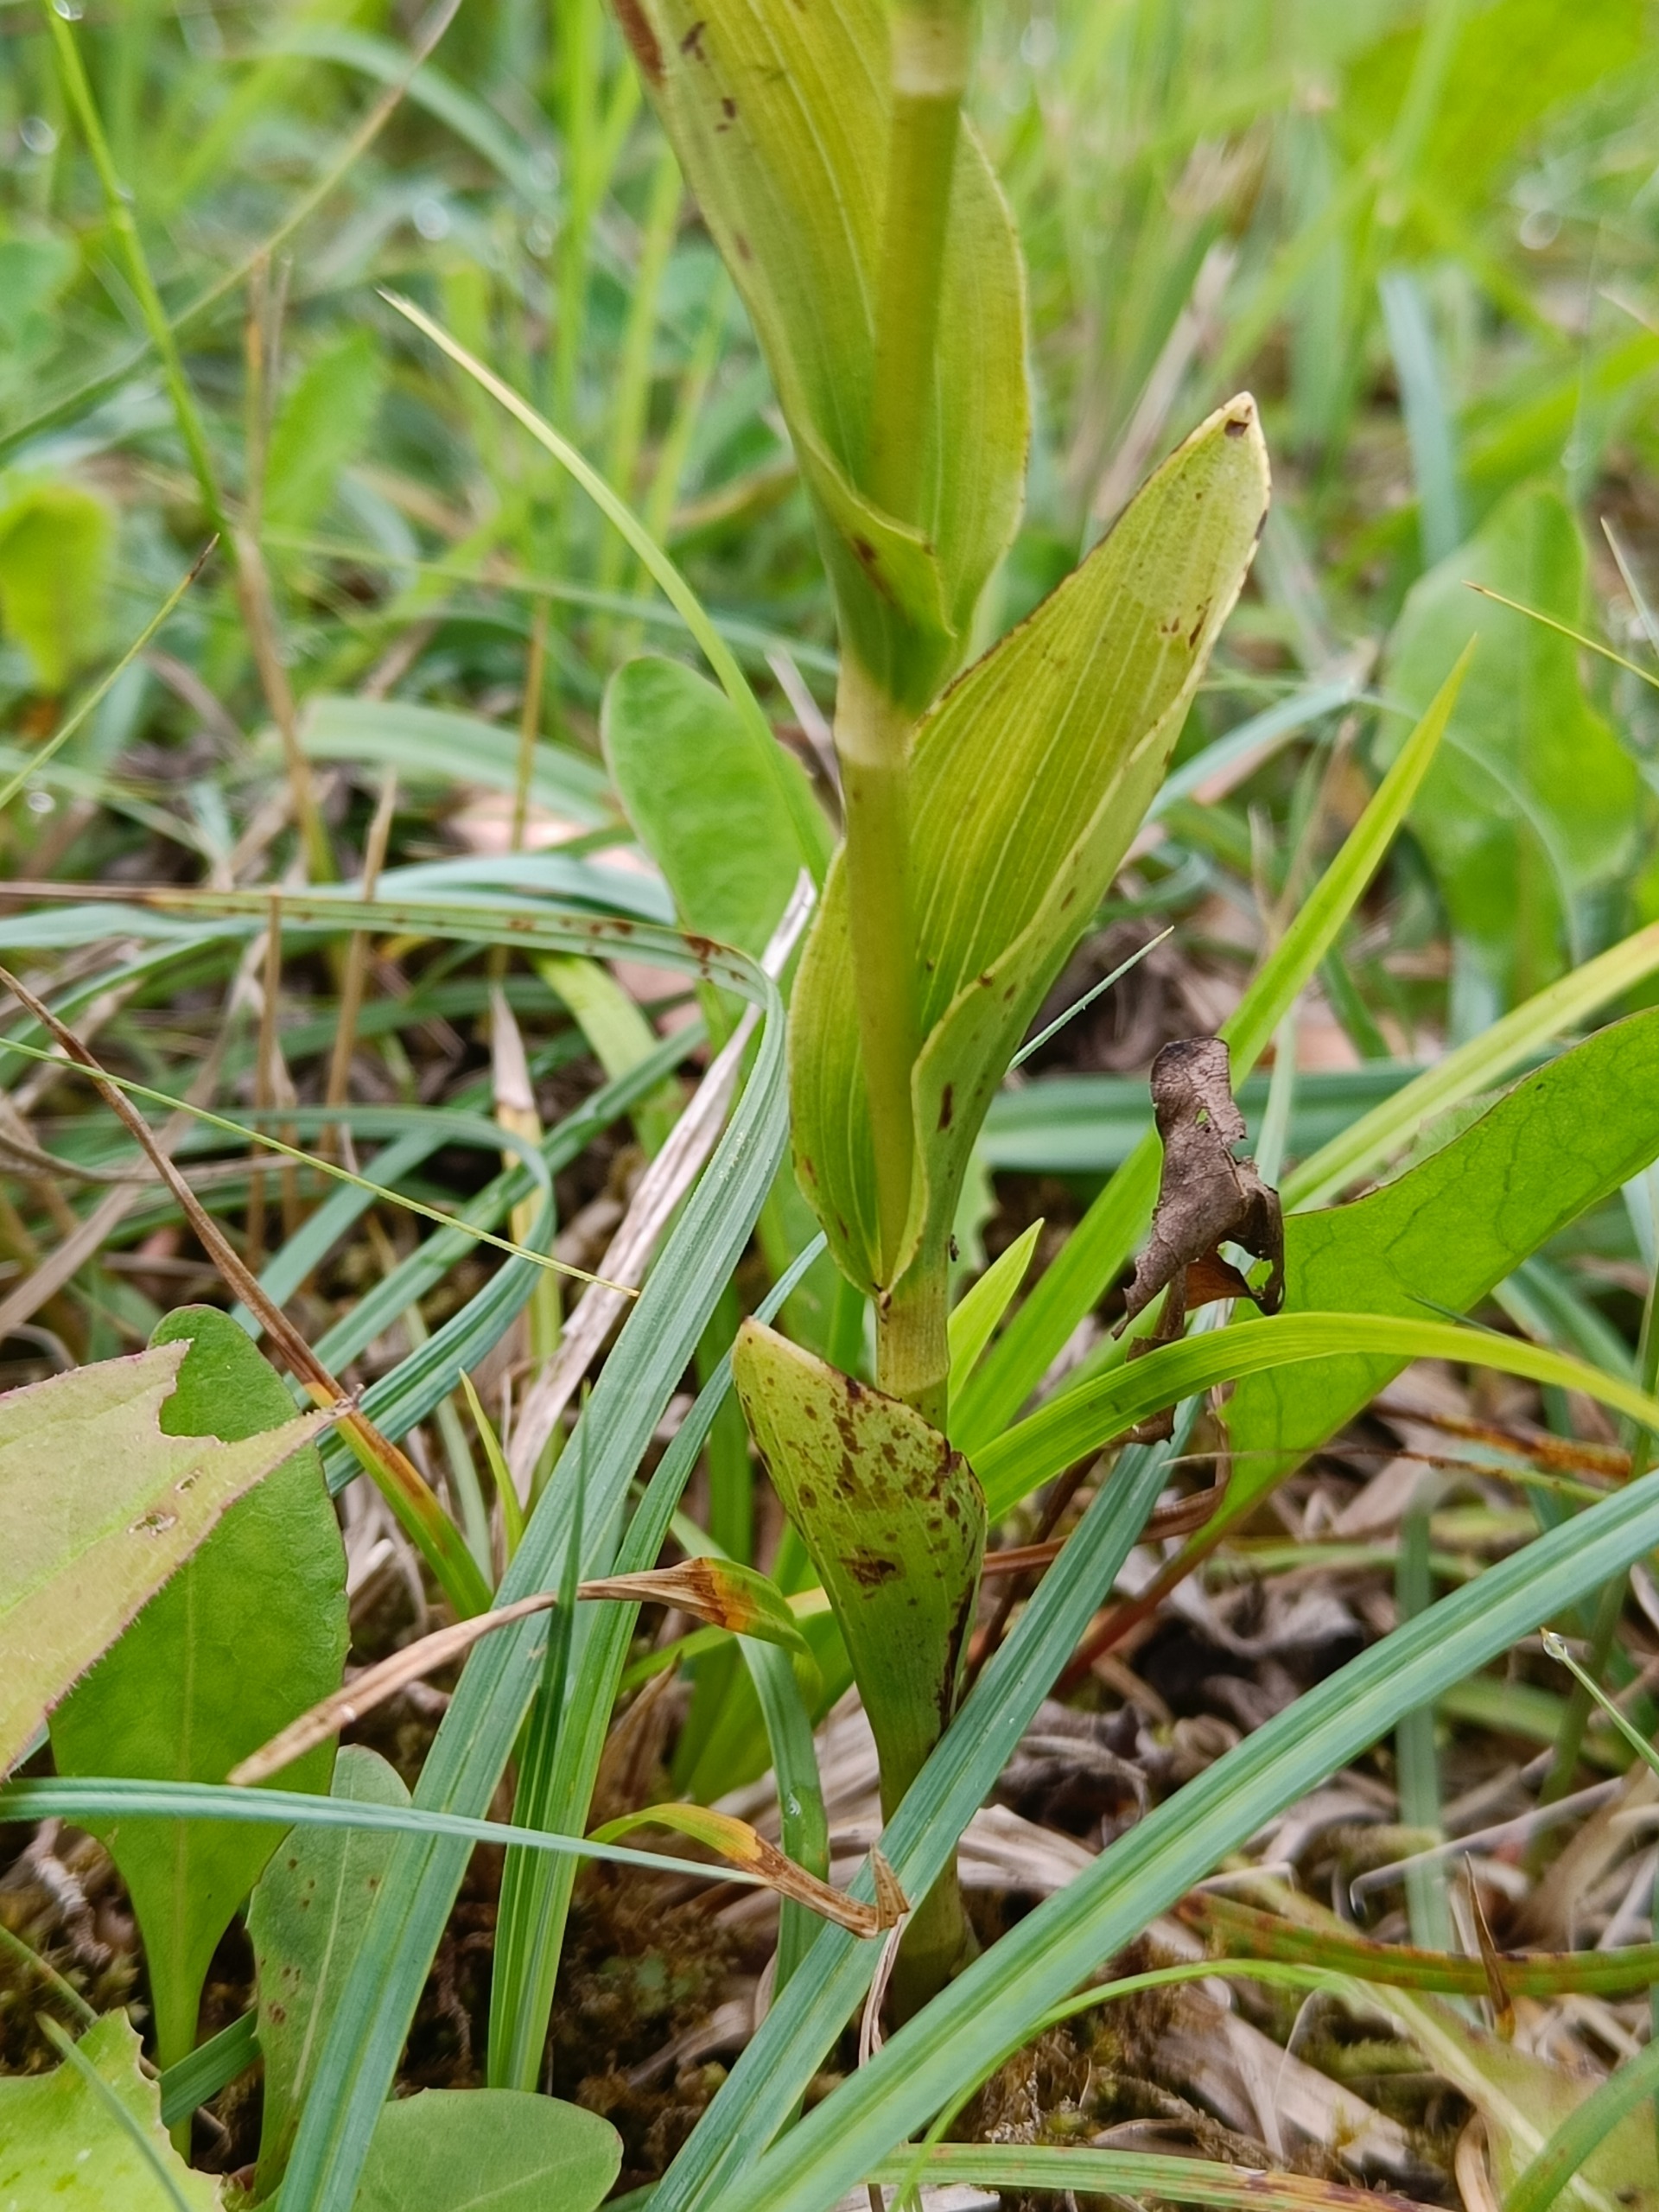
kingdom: Plantae
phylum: Tracheophyta
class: Liliopsida
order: Asparagales
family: Orchidaceae
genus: Epipactis
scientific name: Epipactis phyllanthes
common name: Nikkende hullæbe
